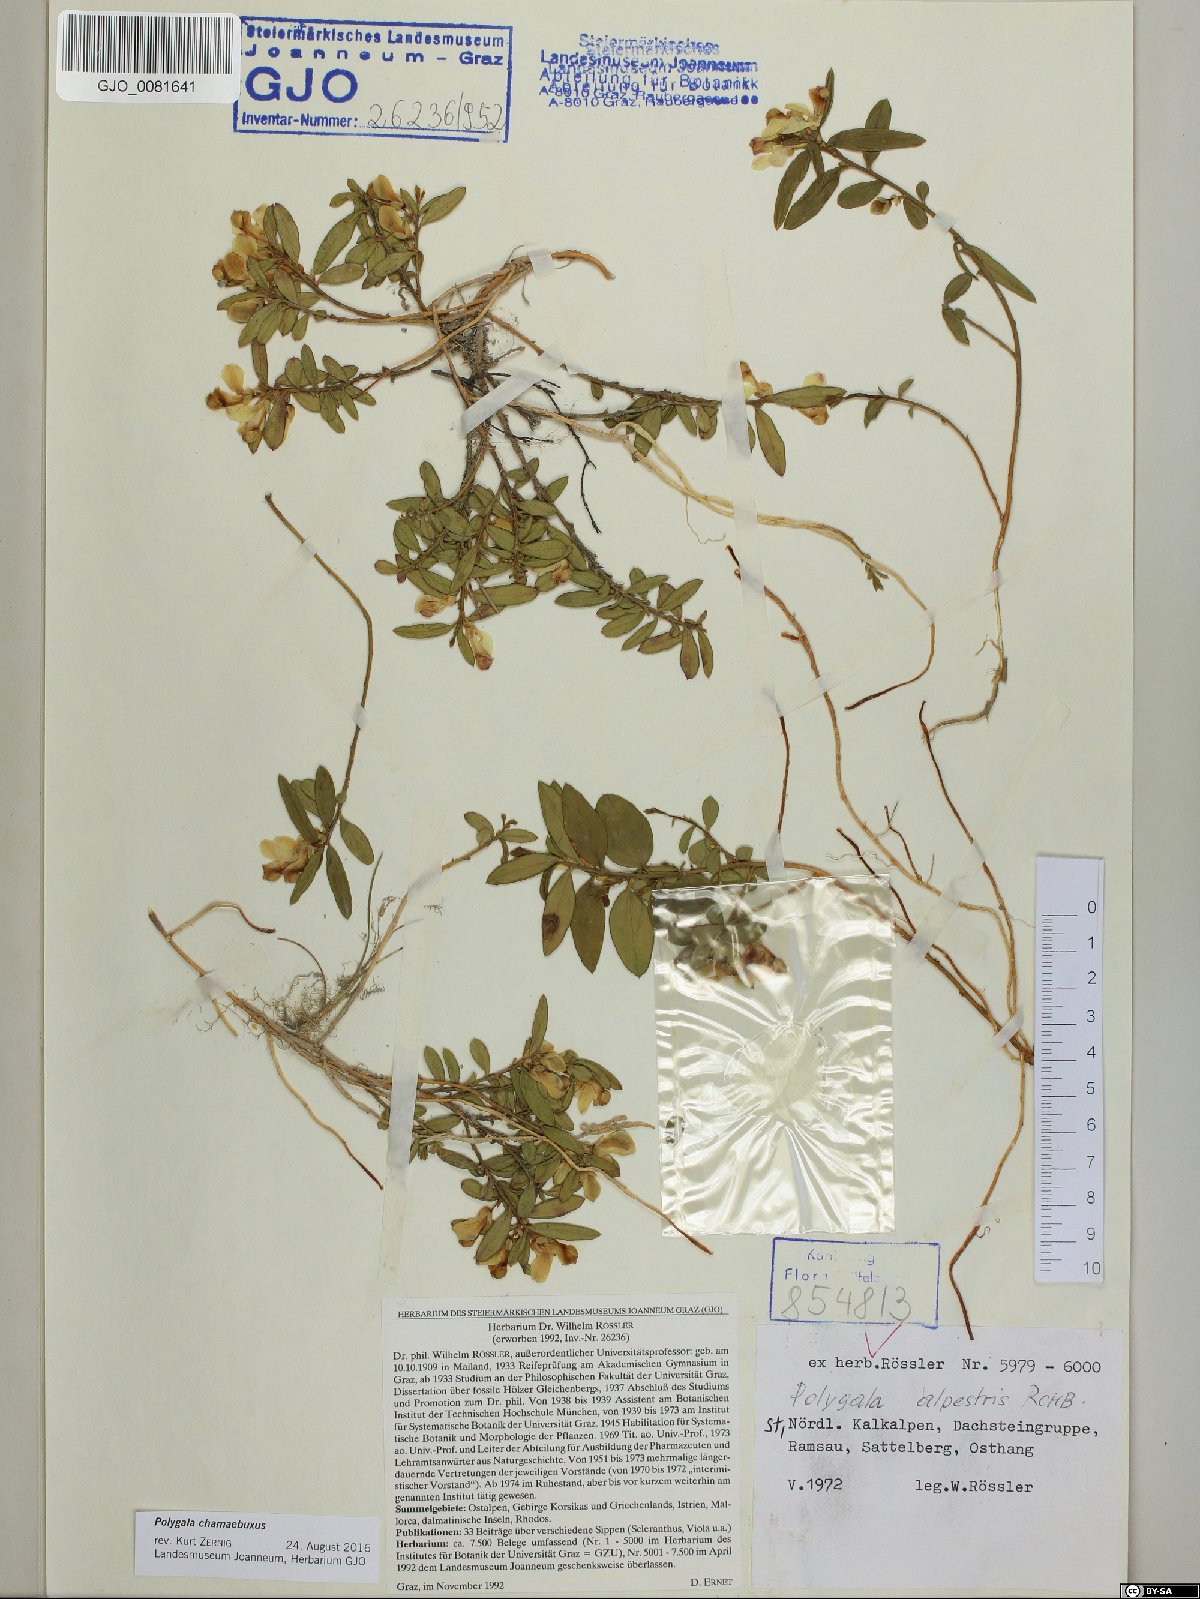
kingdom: Plantae
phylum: Tracheophyta
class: Magnoliopsida
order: Fabales
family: Polygalaceae
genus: Polygaloides
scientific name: Polygaloides chamaebuxus
